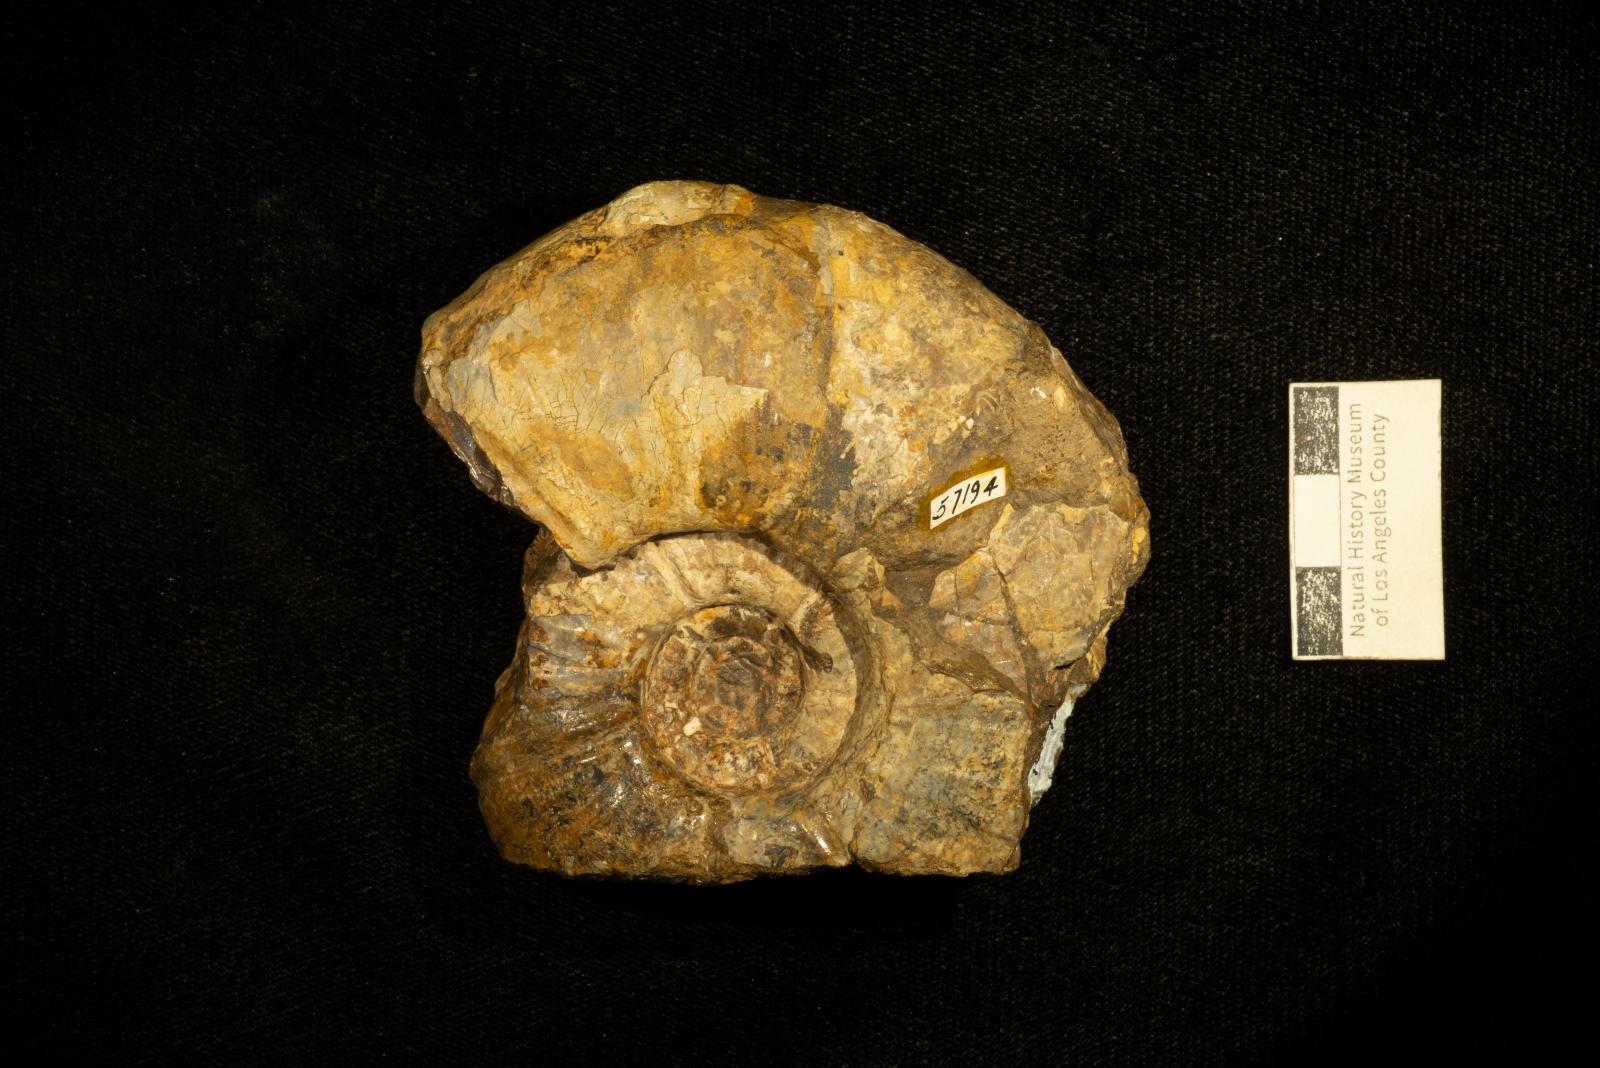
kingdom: Animalia
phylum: Mollusca
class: Cephalopoda
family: Pachydiscidae
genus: Canadoceras
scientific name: Canadoceras yokoyamai
